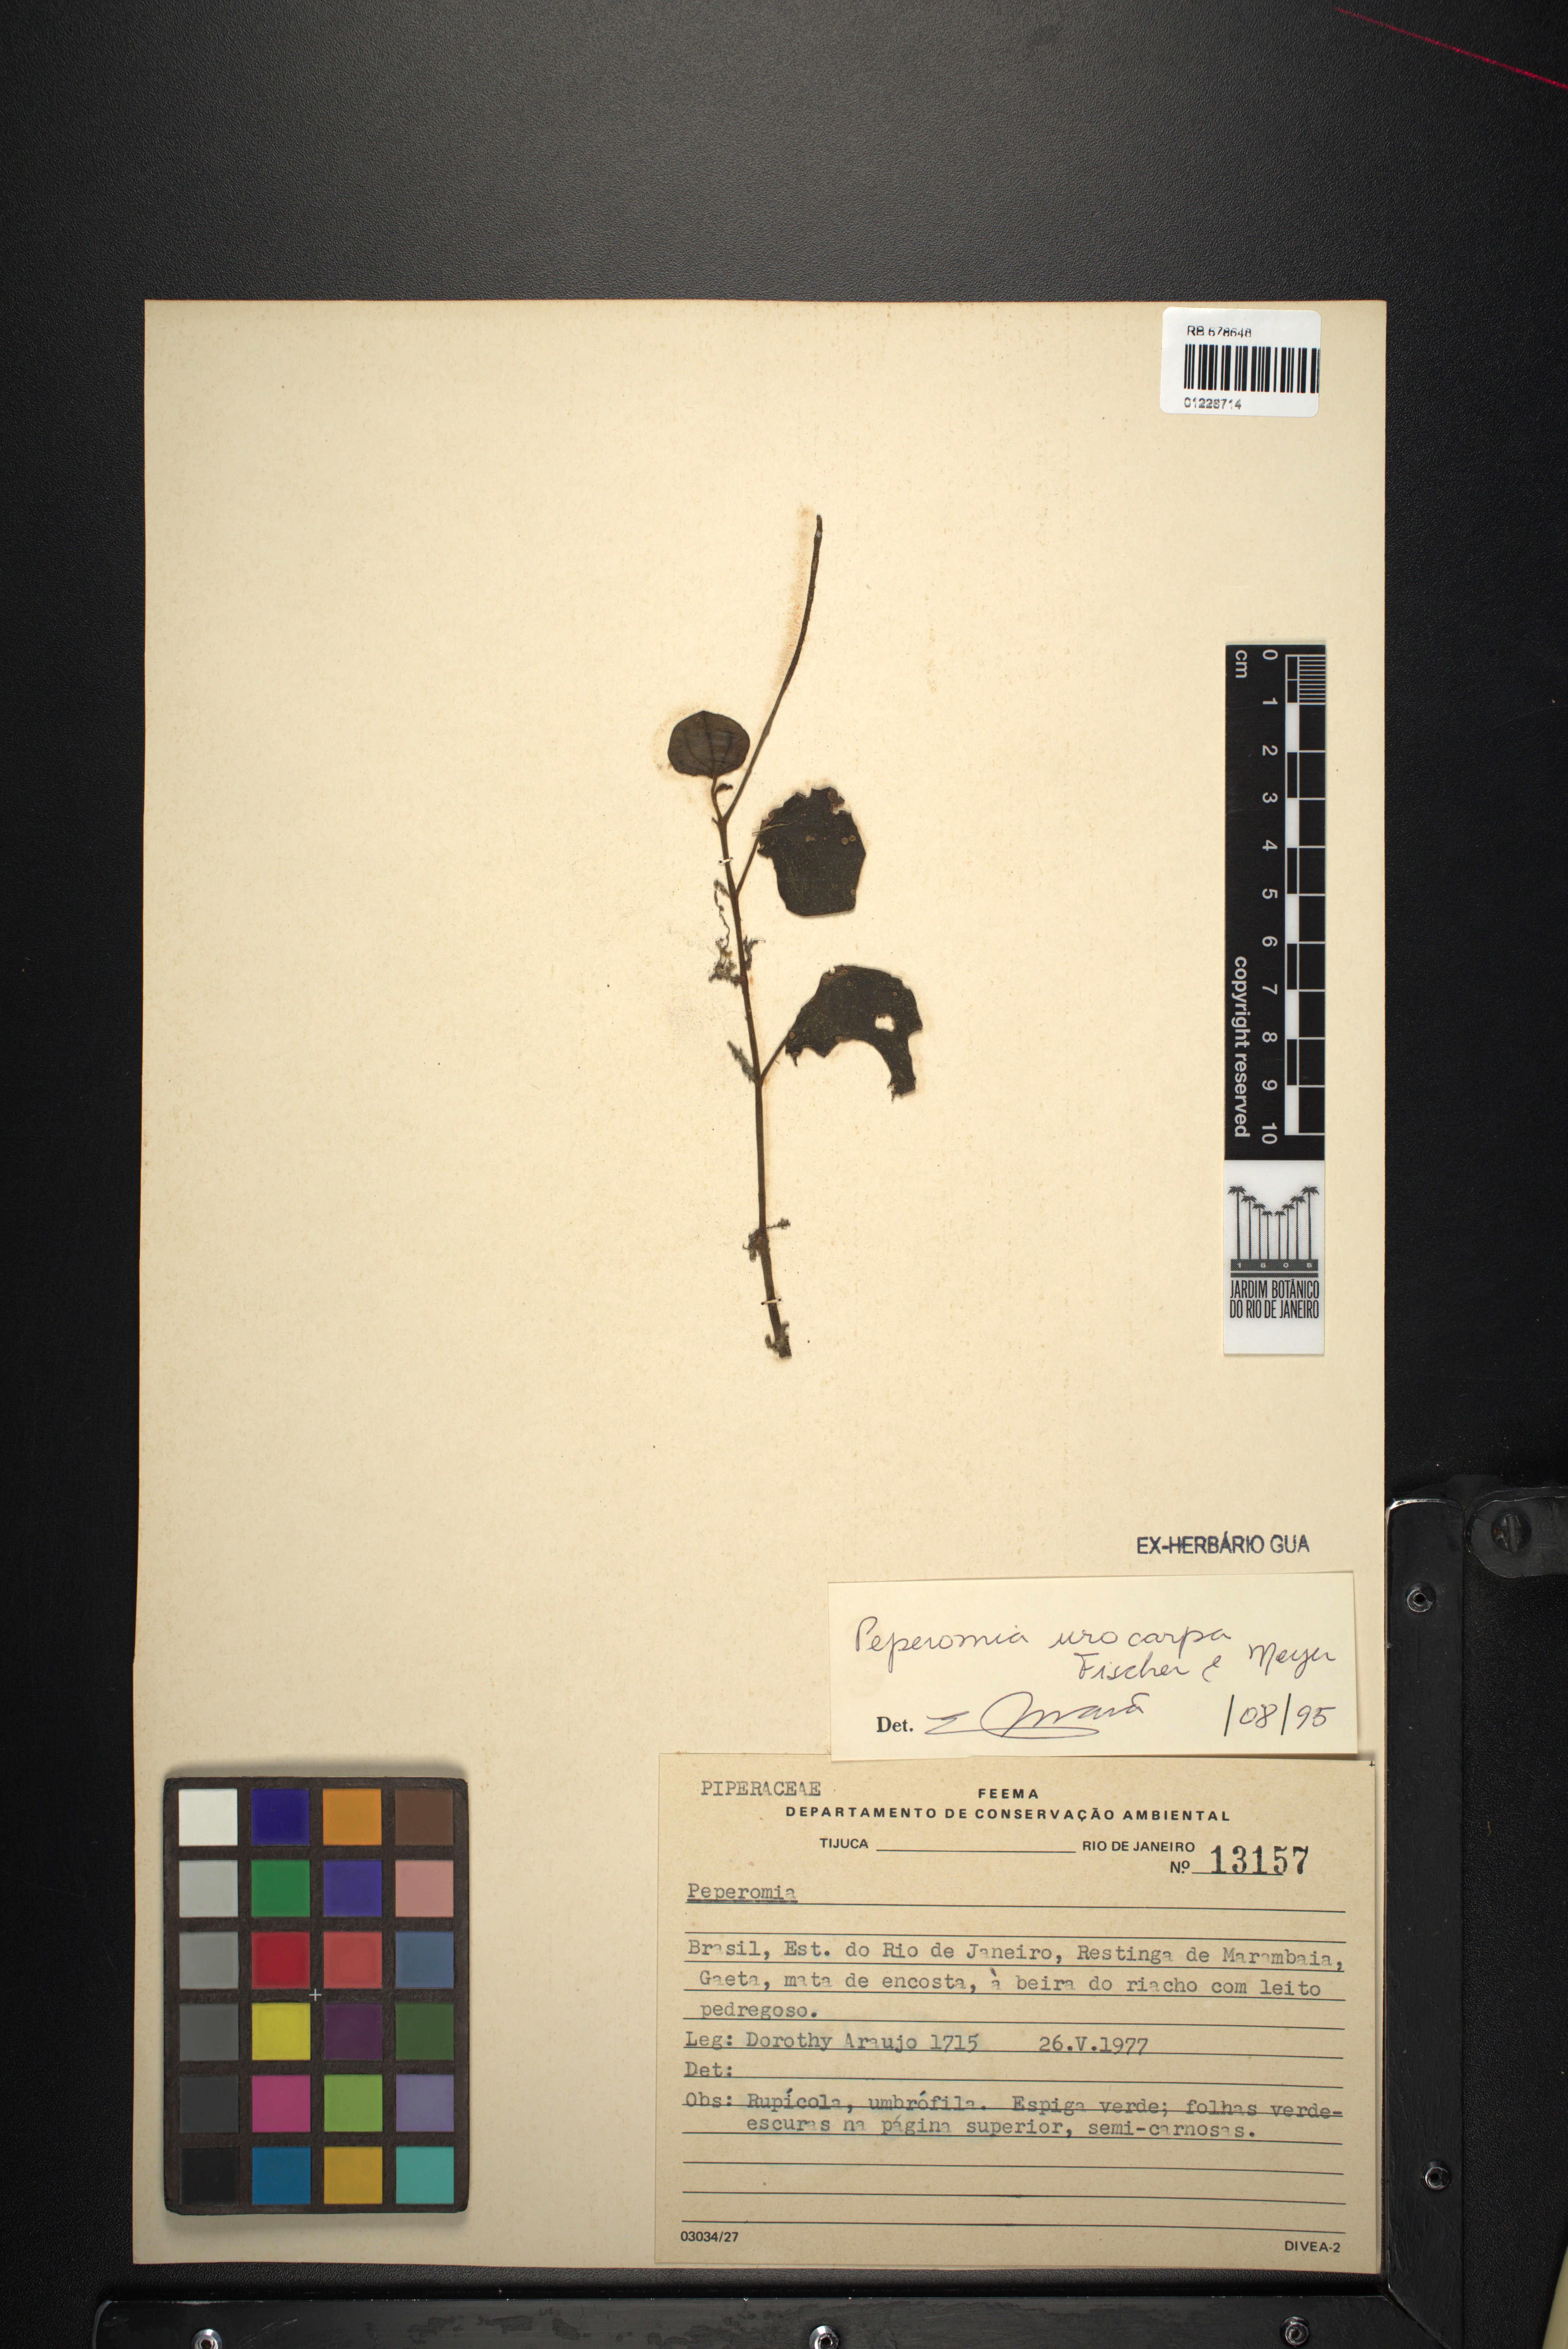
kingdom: Plantae
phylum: Tracheophyta
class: Magnoliopsida
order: Piperales
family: Piperaceae
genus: Peperomia
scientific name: Peperomia urocarpa
